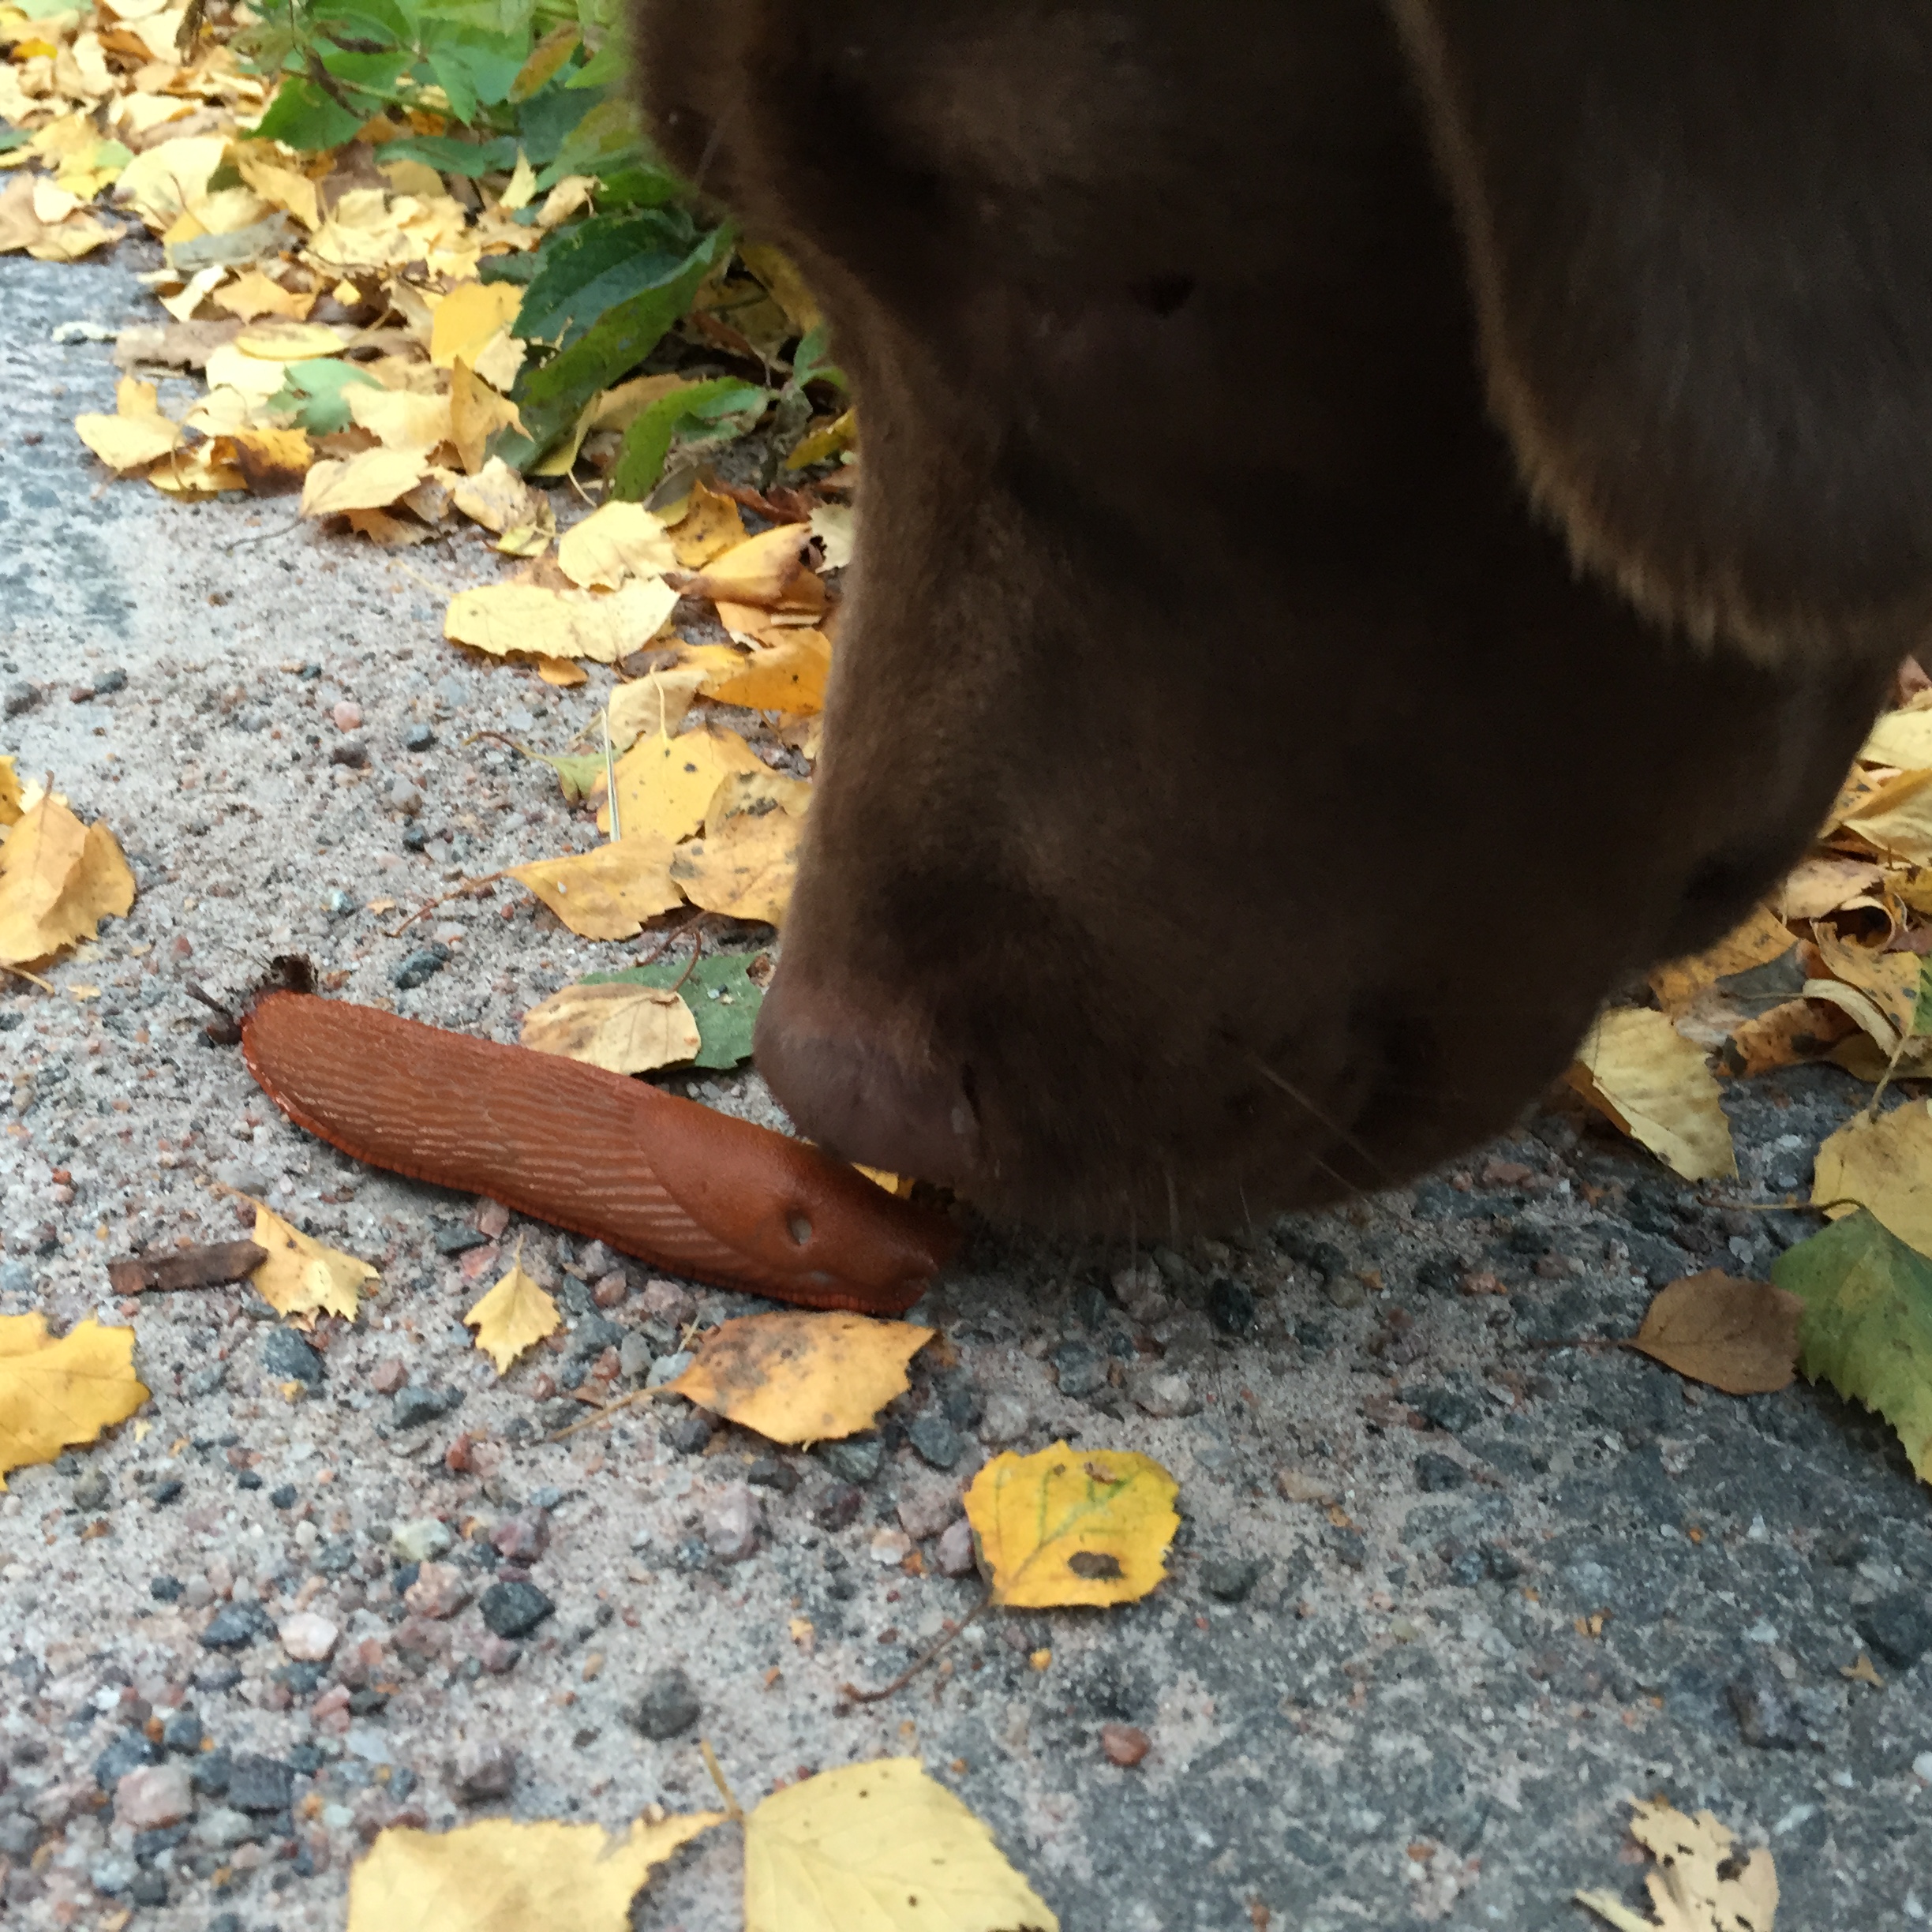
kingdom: Animalia
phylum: Mollusca
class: Gastropoda
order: Stylommatophora
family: Arionidae
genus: Arion
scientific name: Arion vulgaris
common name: Lusitanian slug
